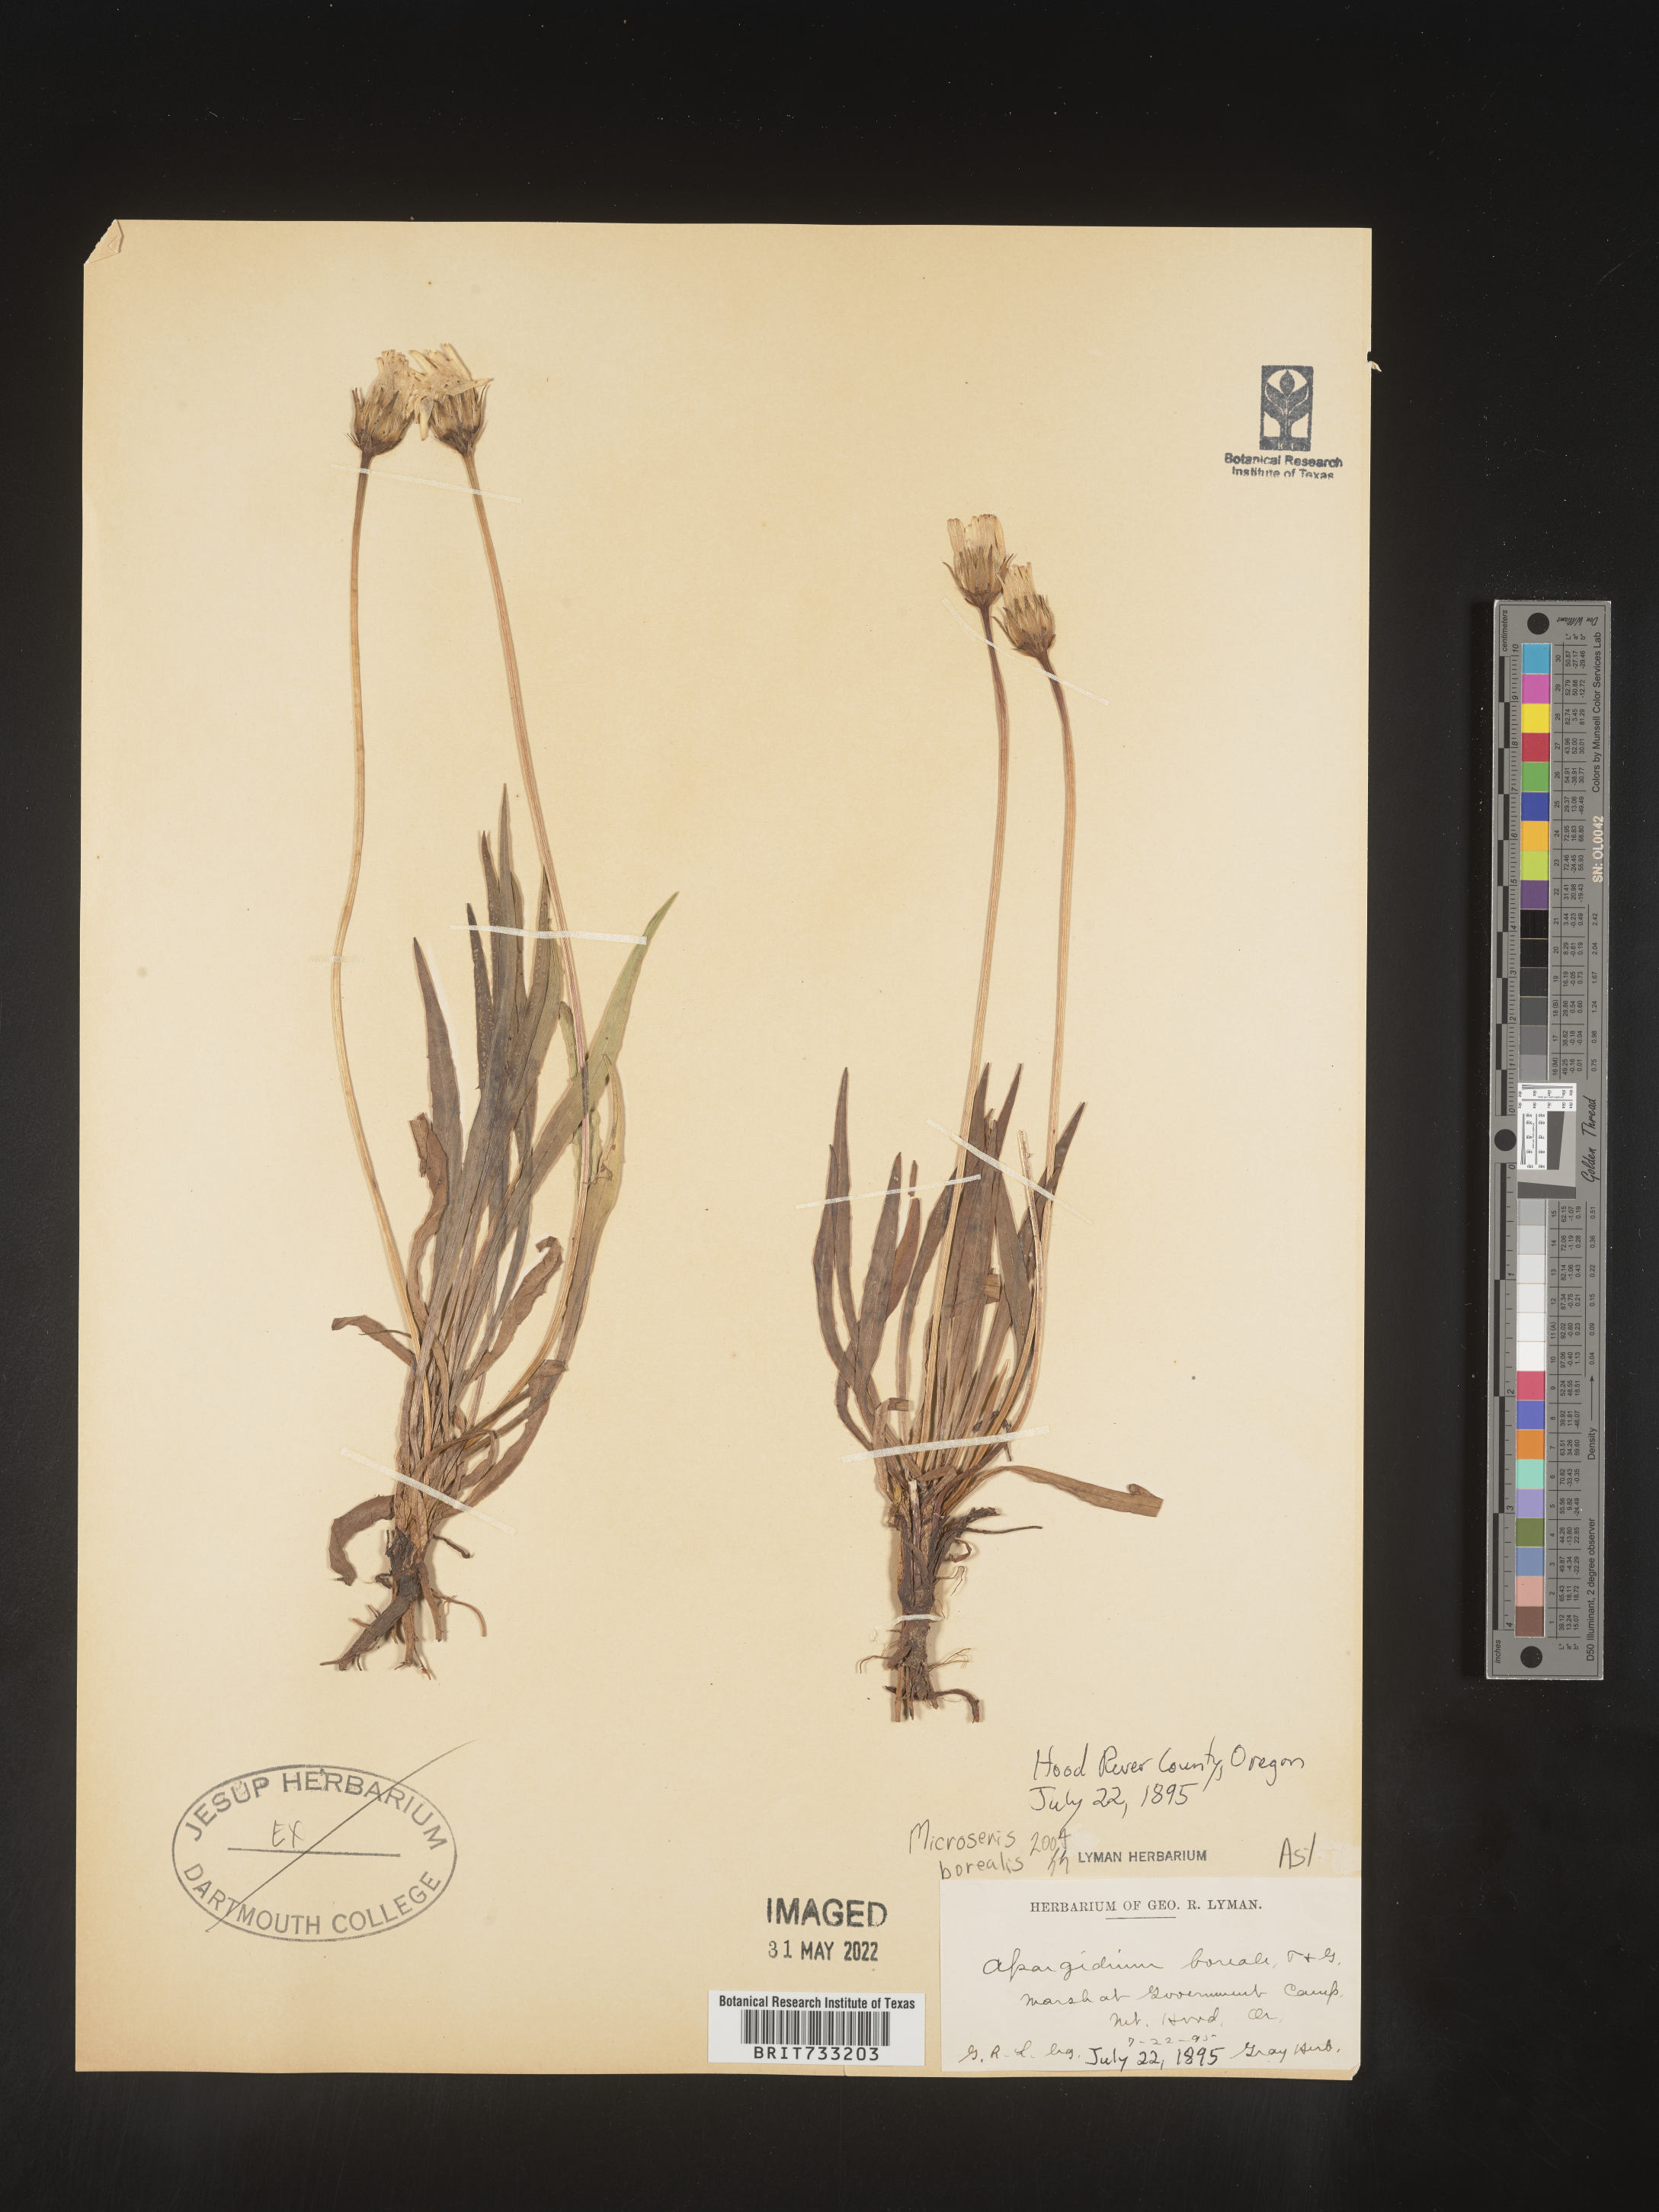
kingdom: Plantae
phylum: Tracheophyta
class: Magnoliopsida
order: Asterales
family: Asteraceae
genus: Microseris
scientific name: Microseris
